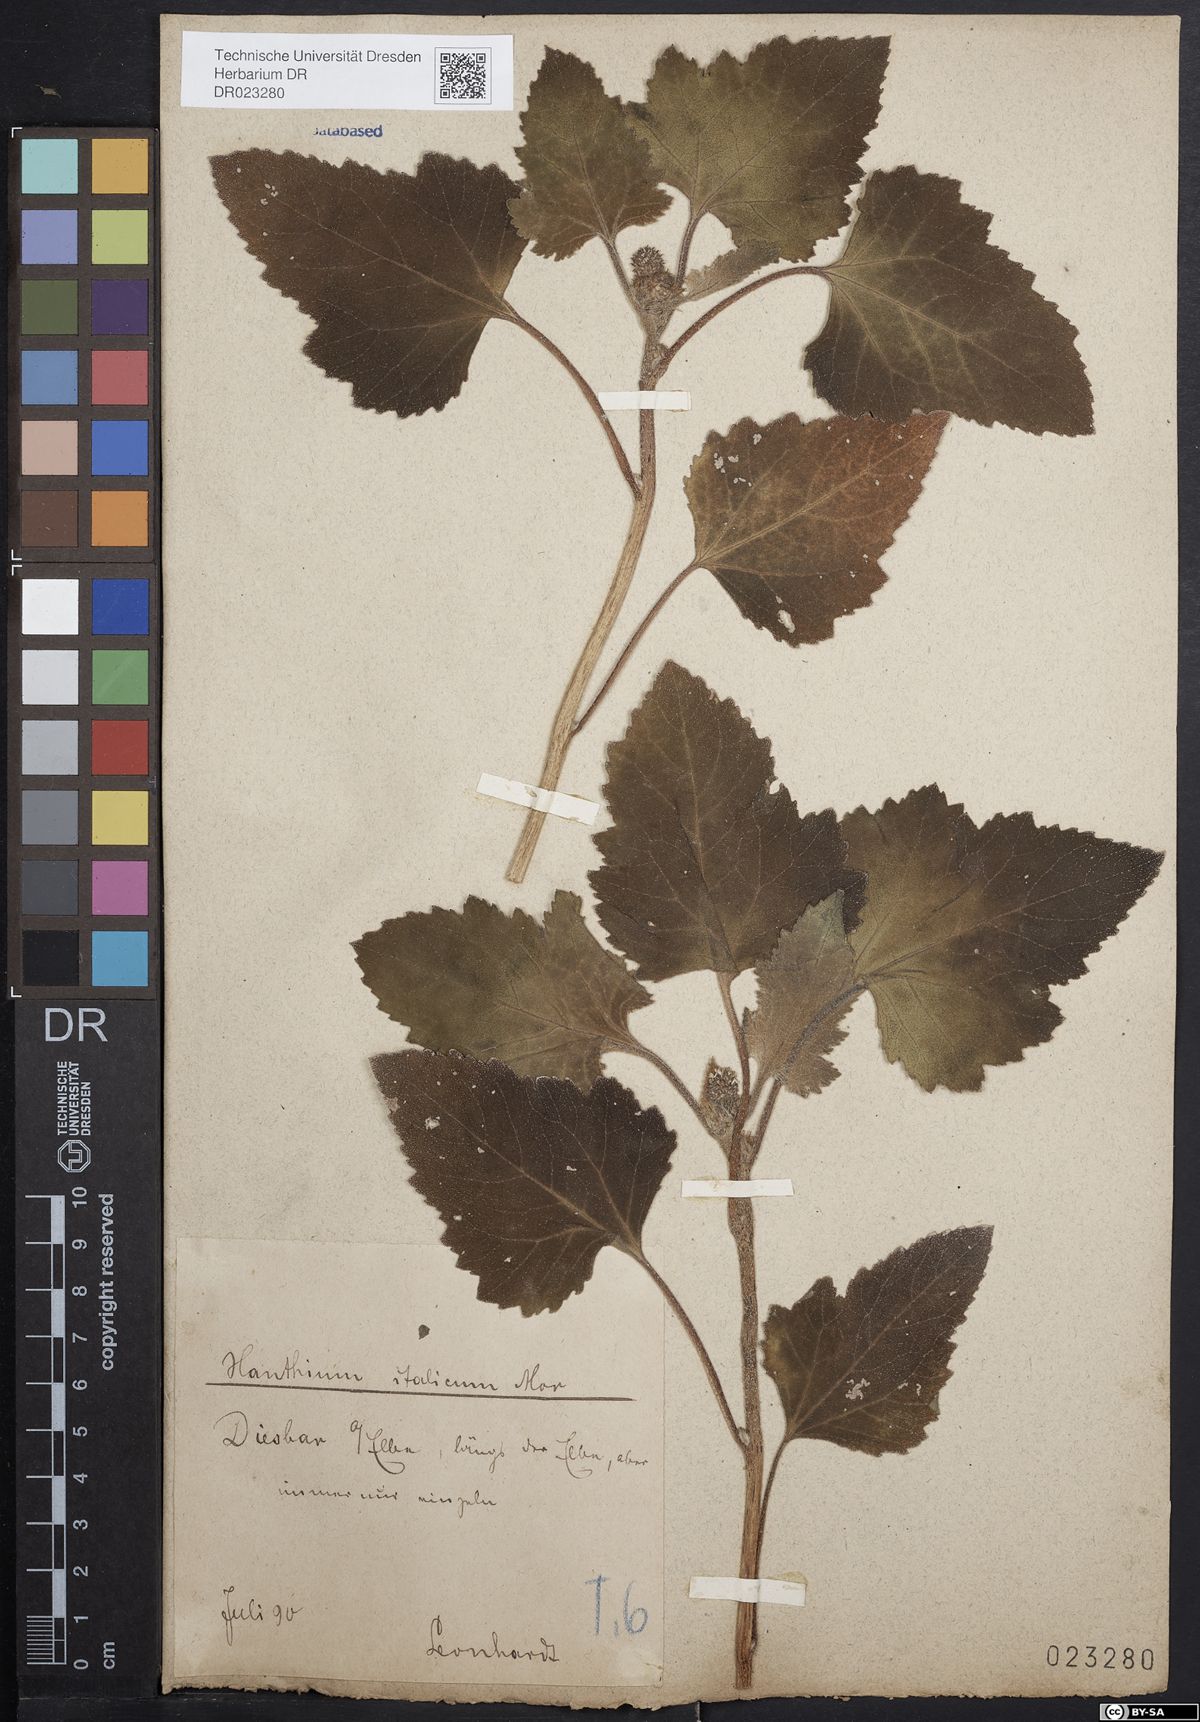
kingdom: Plantae
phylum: Tracheophyta
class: Magnoliopsida
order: Asterales
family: Asteraceae
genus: Xanthium
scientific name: Xanthium orientale
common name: Californian burr
